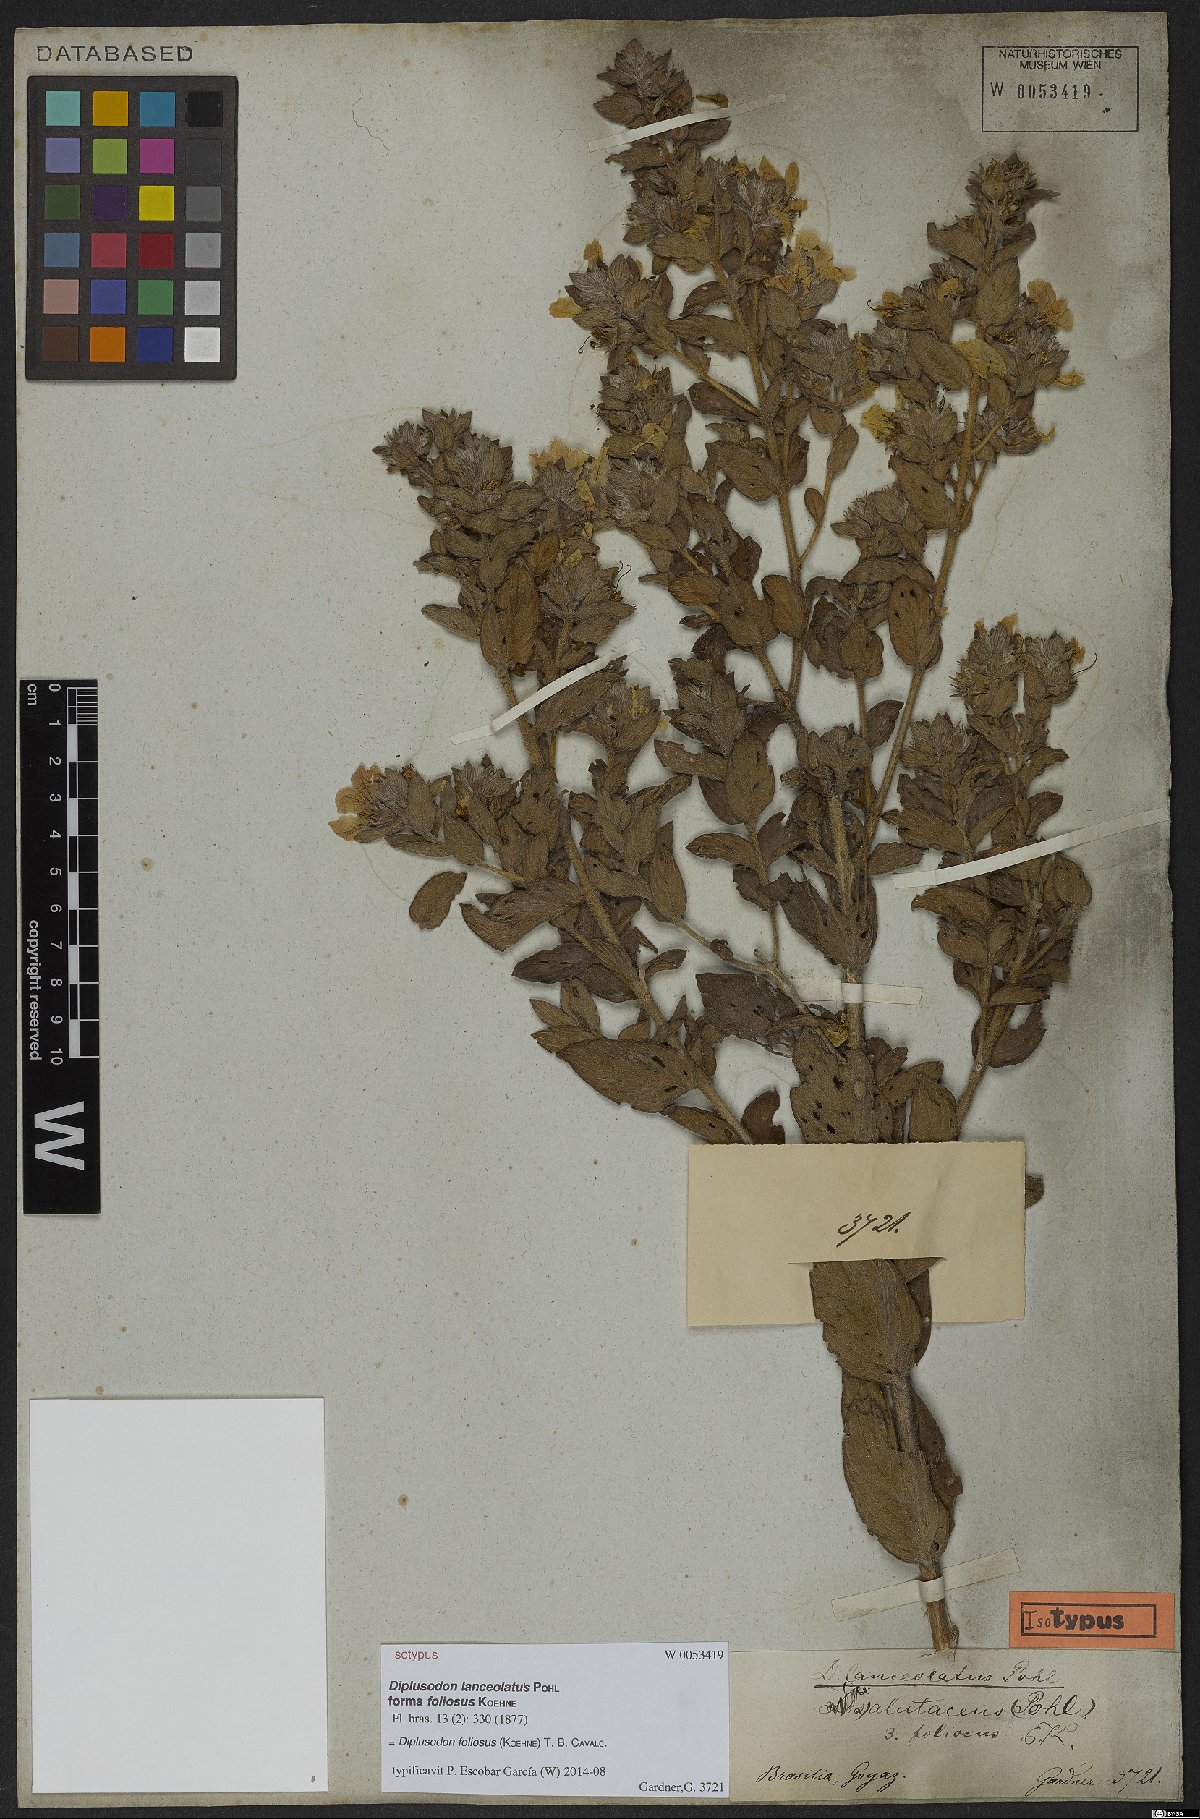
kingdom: Plantae
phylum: Tracheophyta
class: Magnoliopsida
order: Myrtales
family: Lythraceae
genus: Diplusodon
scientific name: Diplusodon paraisoensis
